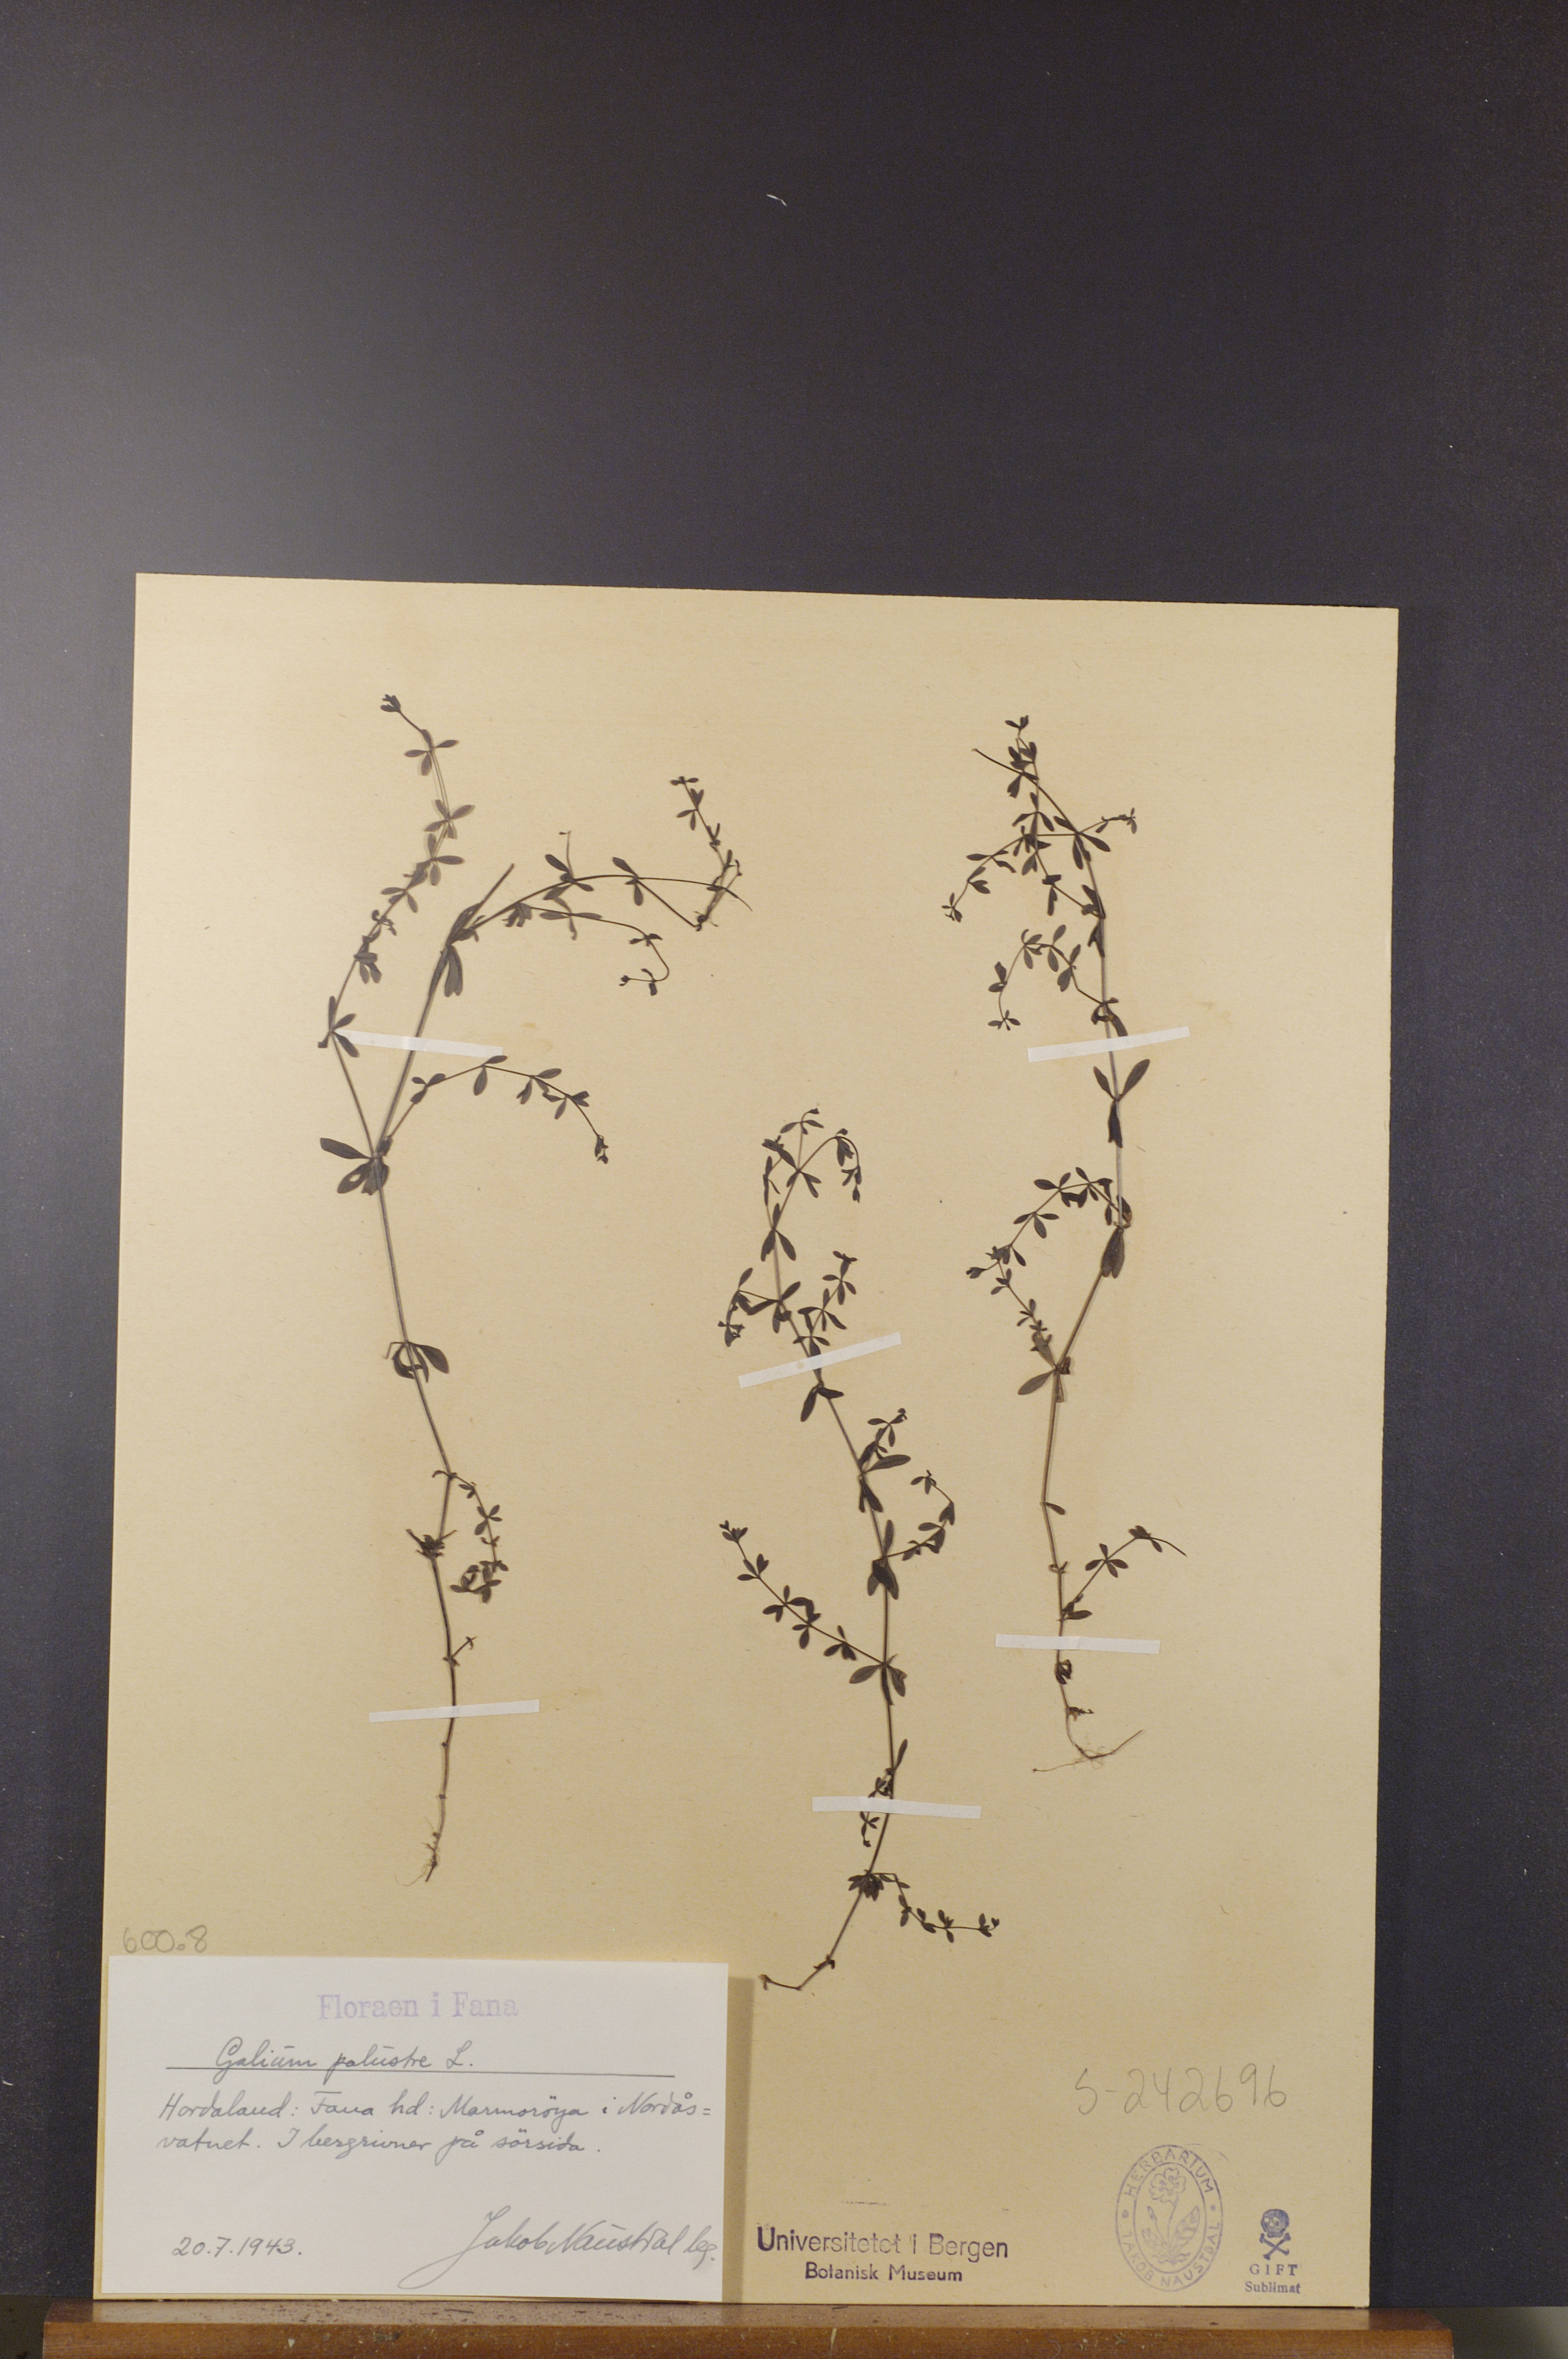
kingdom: Plantae
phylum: Tracheophyta
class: Magnoliopsida
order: Gentianales
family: Rubiaceae
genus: Galium
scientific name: Galium palustre
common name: Common marsh-bedstraw
